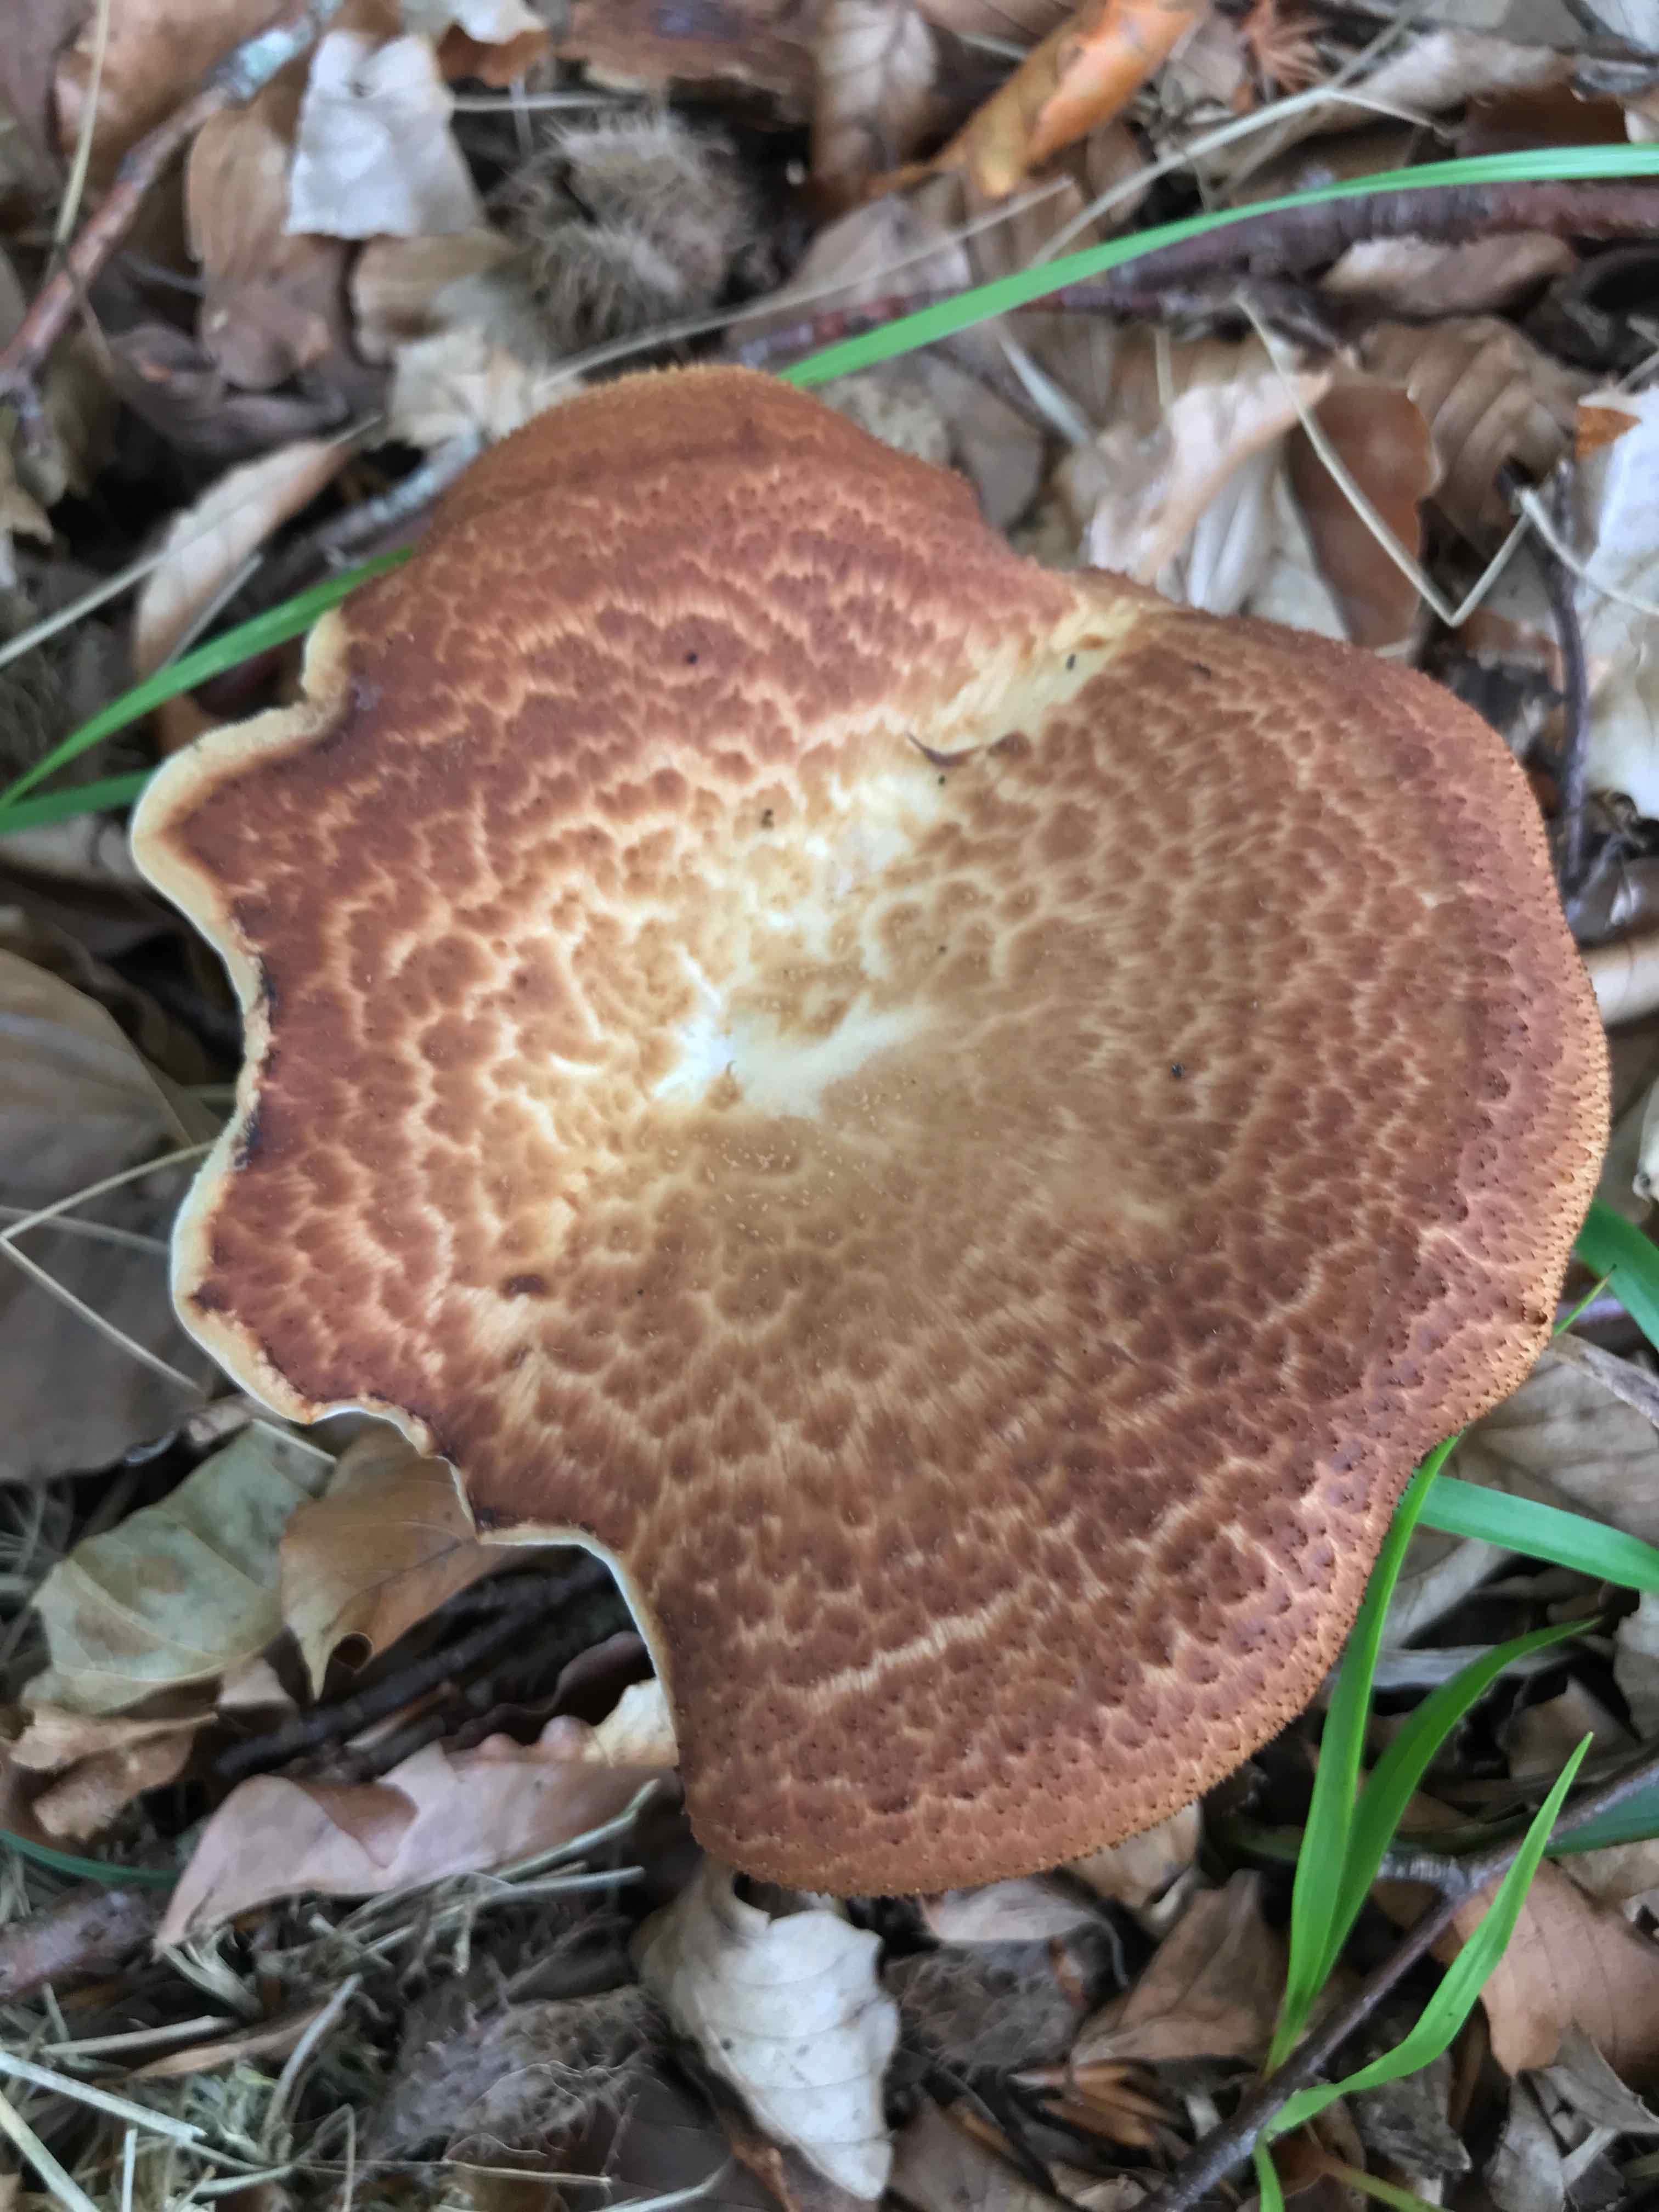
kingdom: Fungi
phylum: Basidiomycota
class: Agaricomycetes
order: Polyporales
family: Polyporaceae
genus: Polyporus
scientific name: Polyporus tuberaster
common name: knoldet stilkporesvamp
